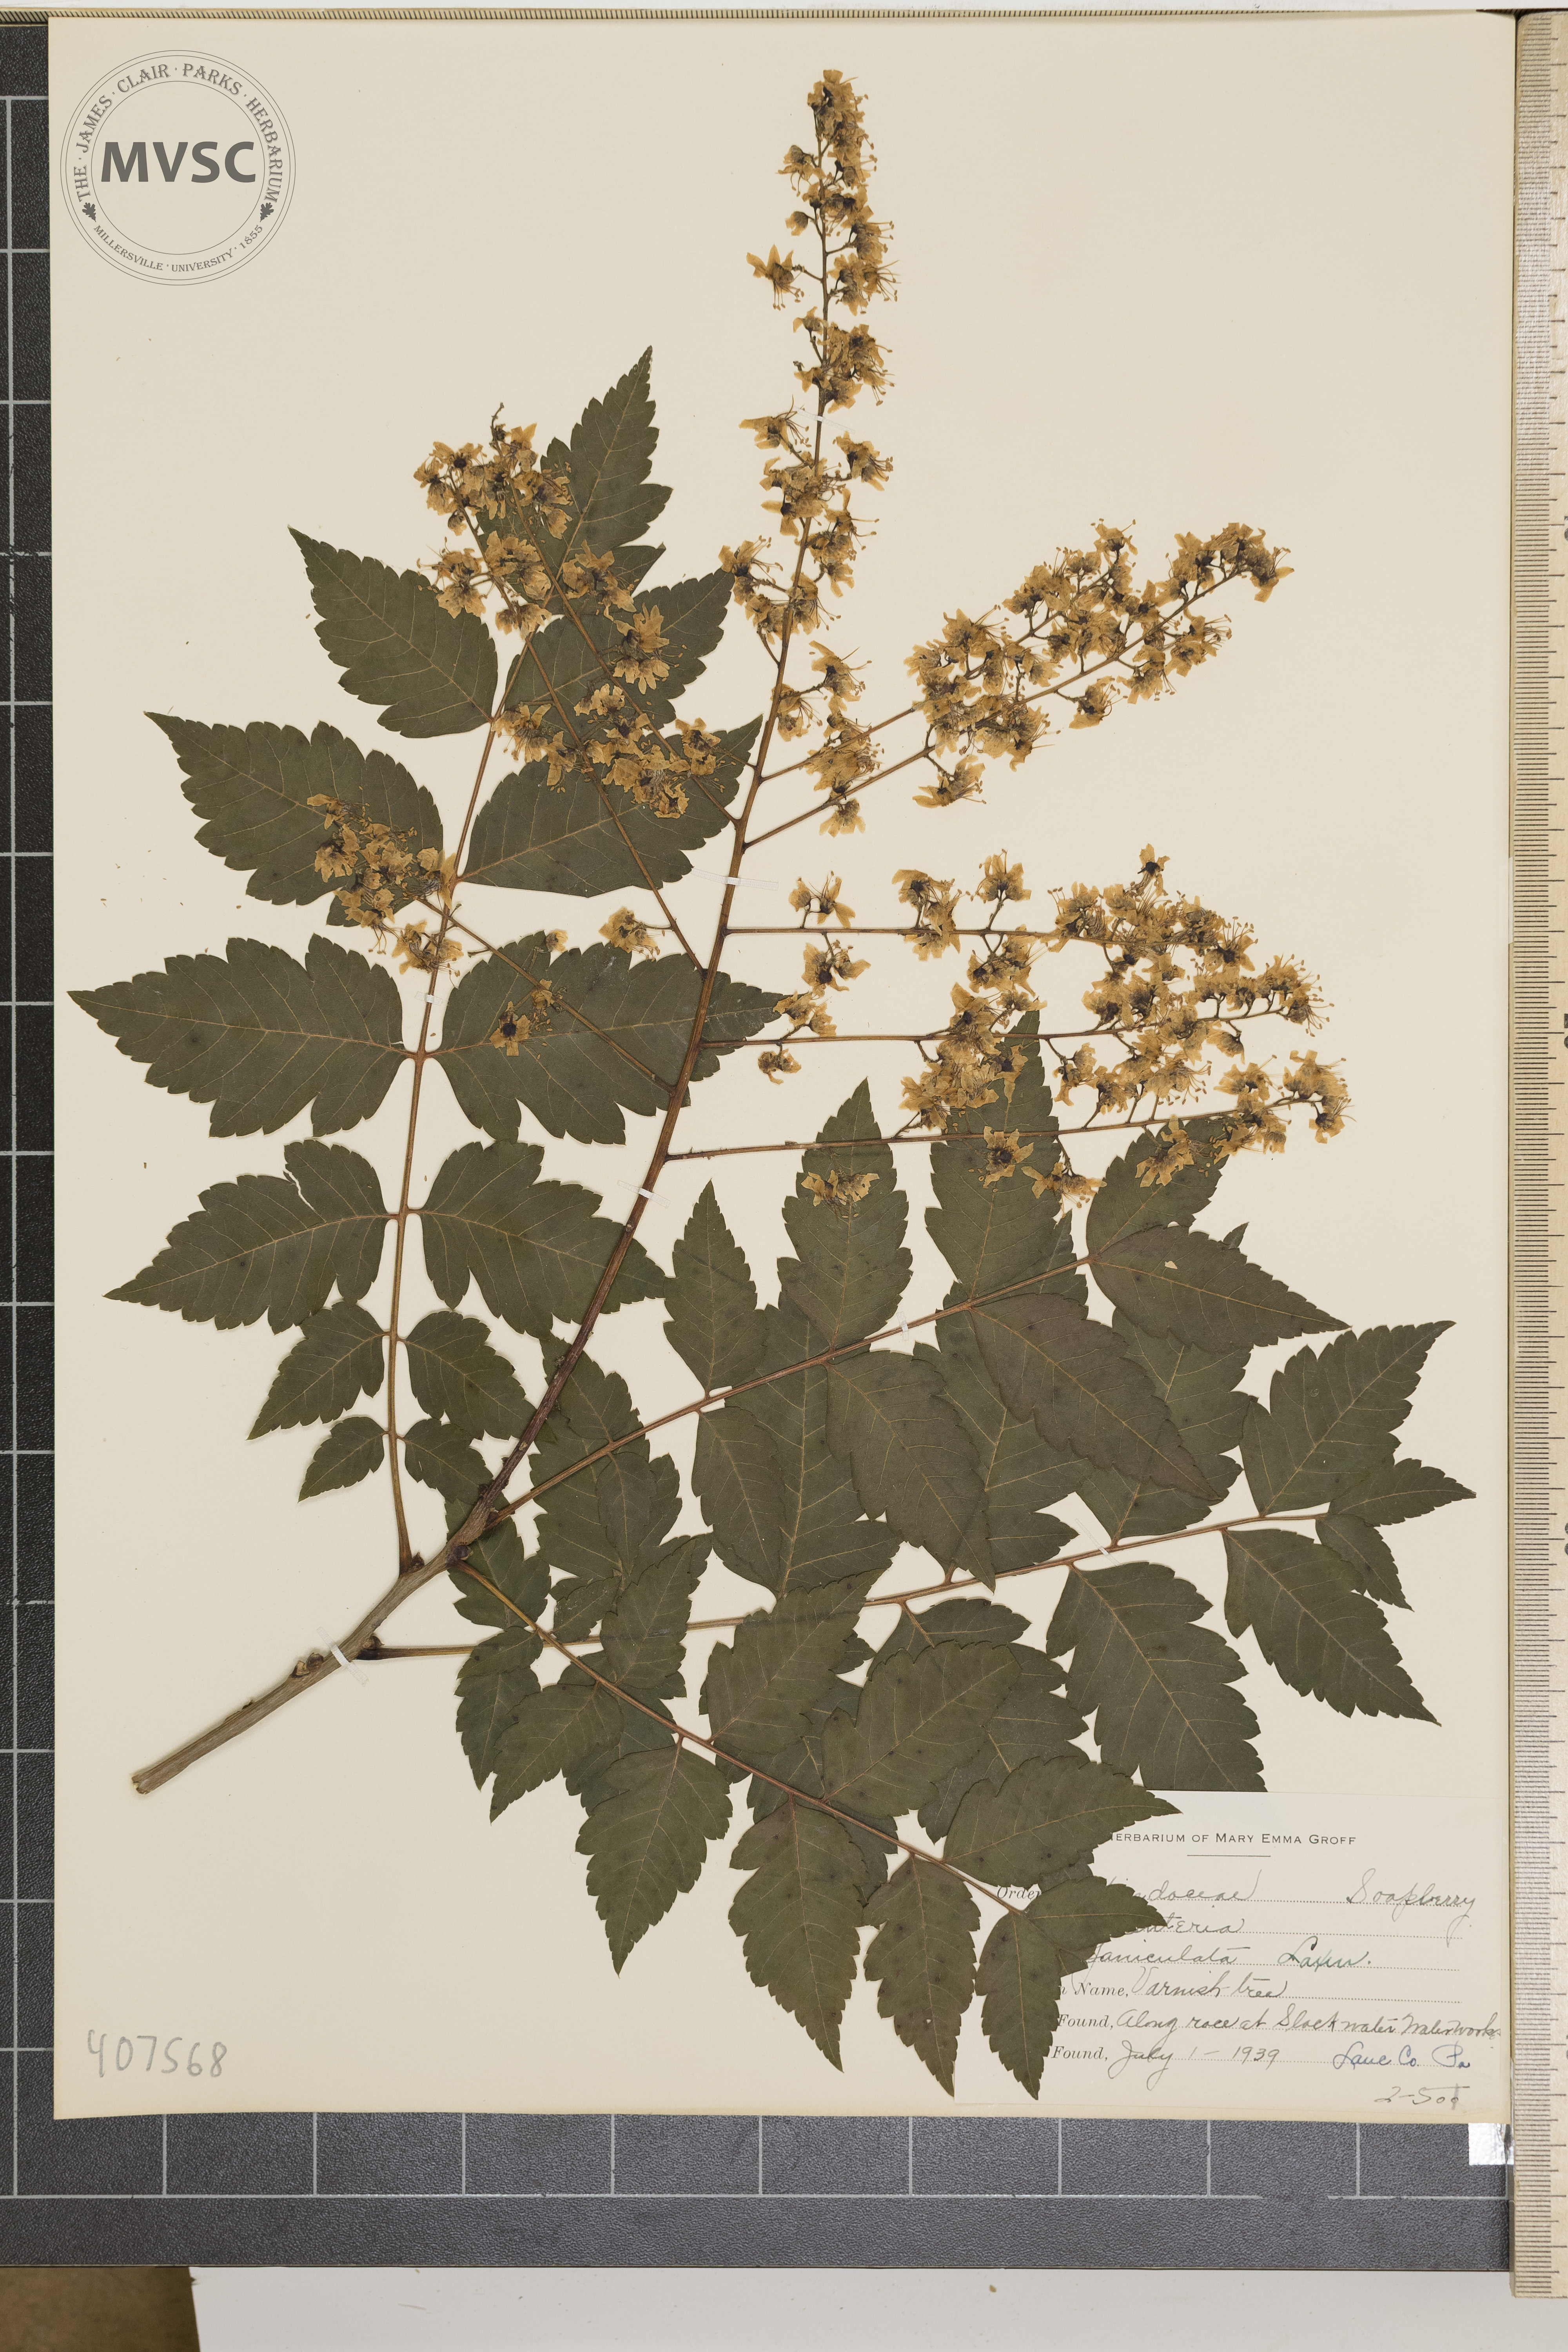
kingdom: Plantae
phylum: Tracheophyta
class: Magnoliopsida
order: Sapindales
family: Sapindaceae
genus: Koelreuteria
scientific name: Koelreuteria paniculata
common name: Varnish Tree
